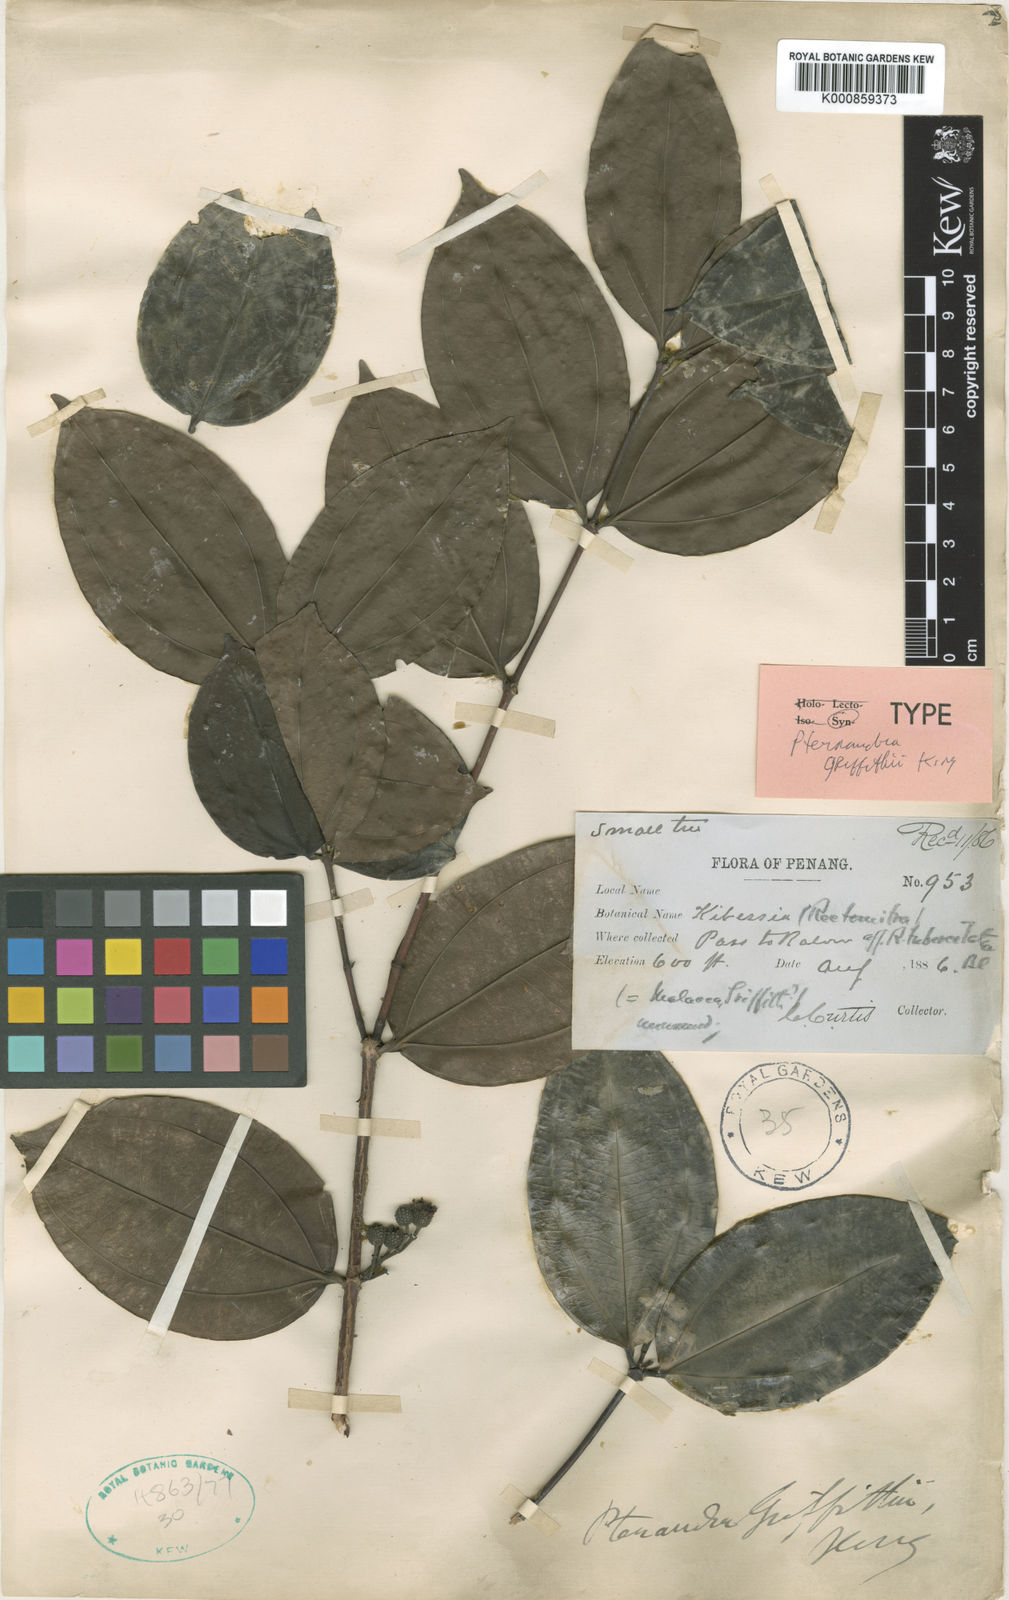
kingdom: Plantae
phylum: Tracheophyta
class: Magnoliopsida
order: Myrtales
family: Melastomataceae
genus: Pternandra
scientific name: Pternandra tuberculata
